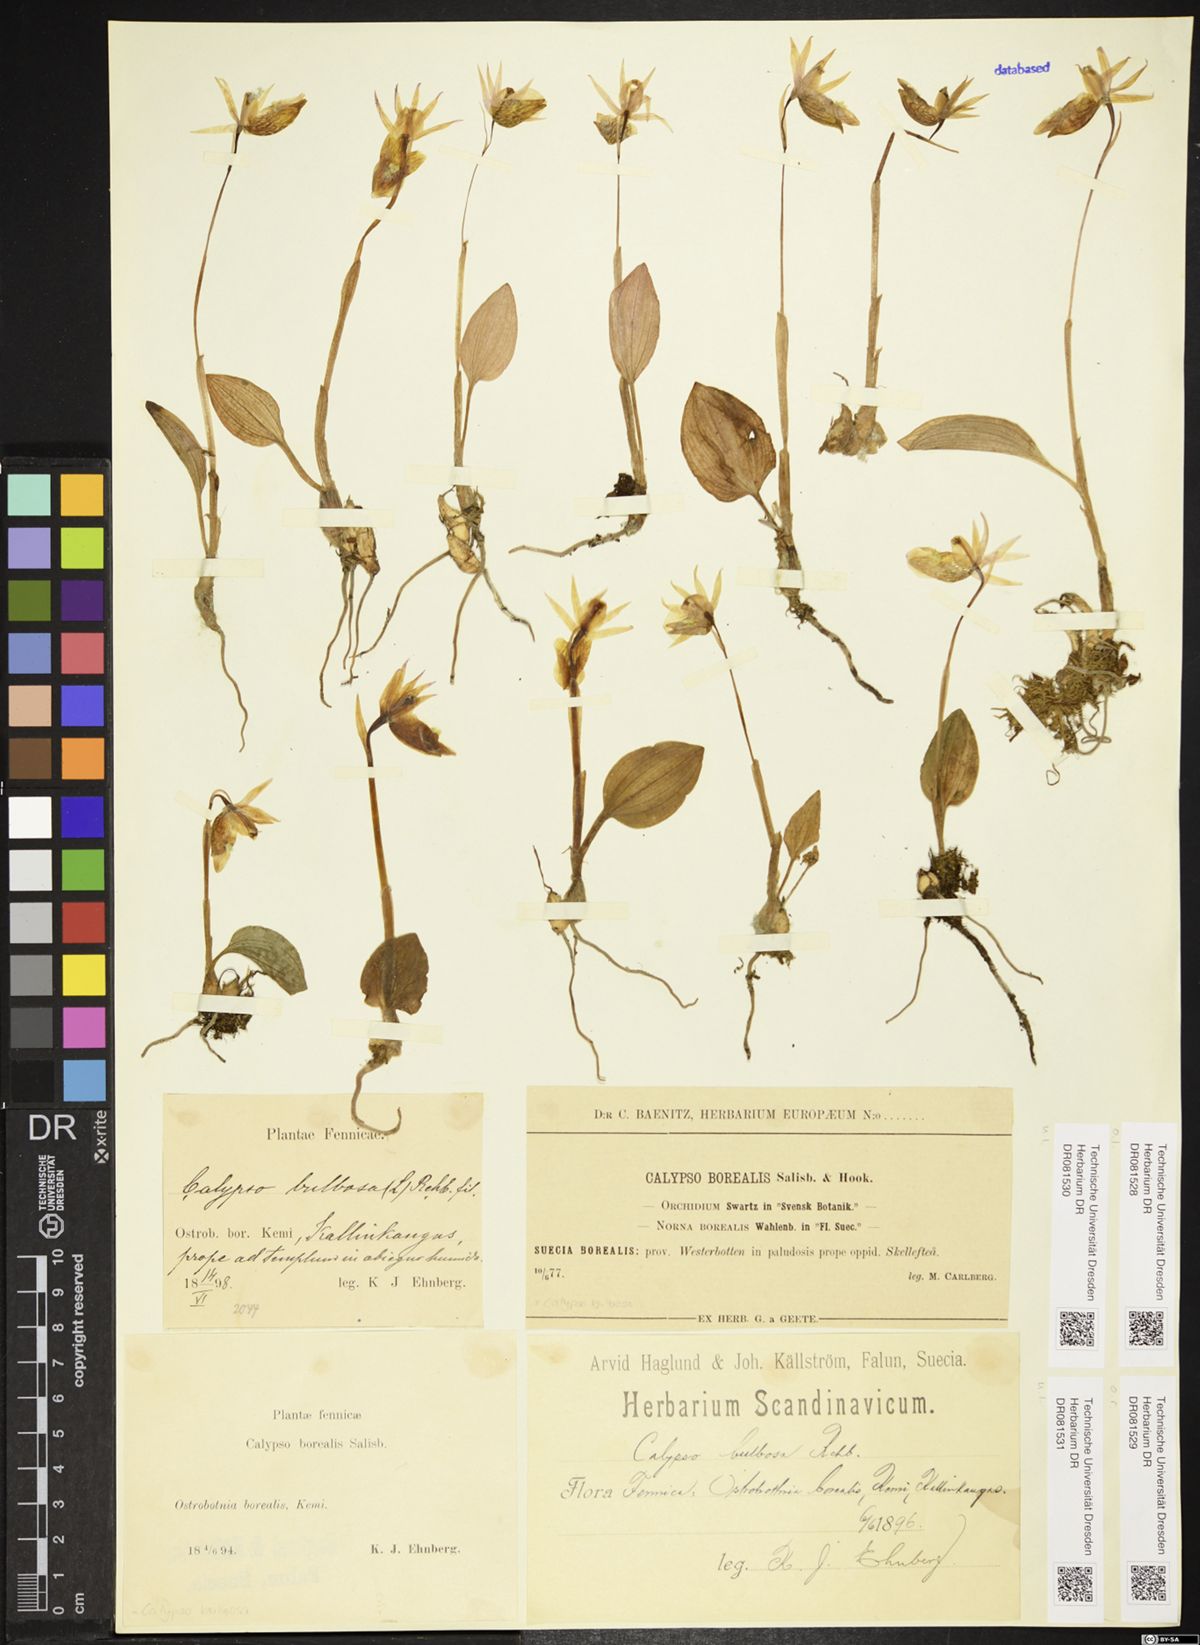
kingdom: Plantae
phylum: Tracheophyta
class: Liliopsida
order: Asparagales
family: Orchidaceae
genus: Calypso
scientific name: Calypso bulbosa
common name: Calypso
